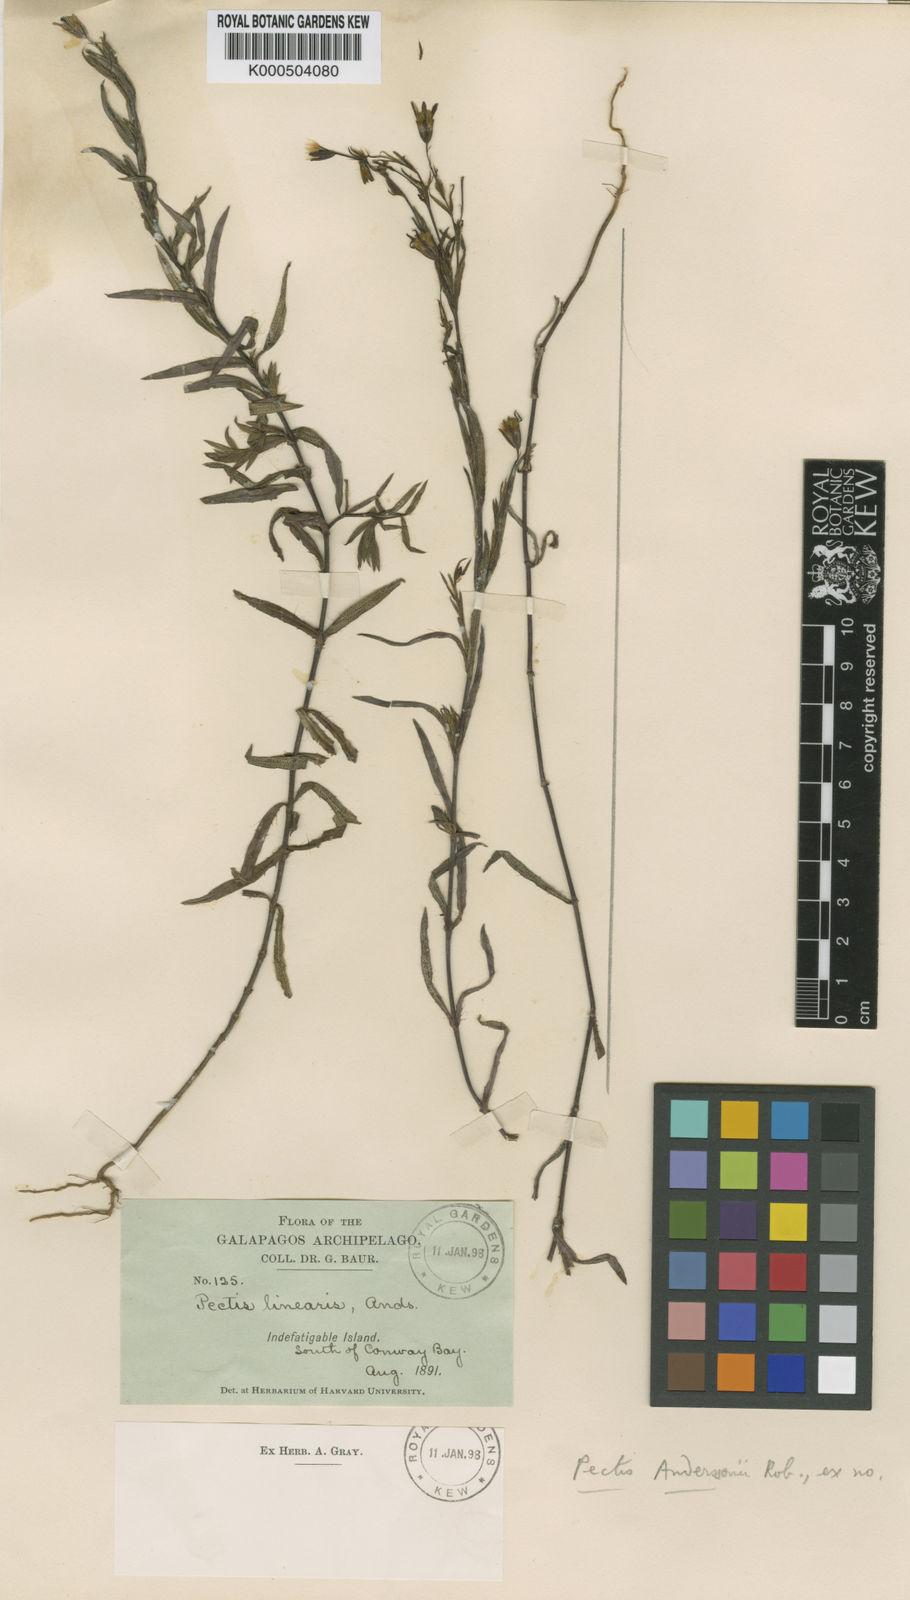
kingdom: Plantae
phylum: Tracheophyta
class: Magnoliopsida
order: Asterales
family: Asteraceae
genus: Pectis
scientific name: Pectis subsquarrosa
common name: Pectis
